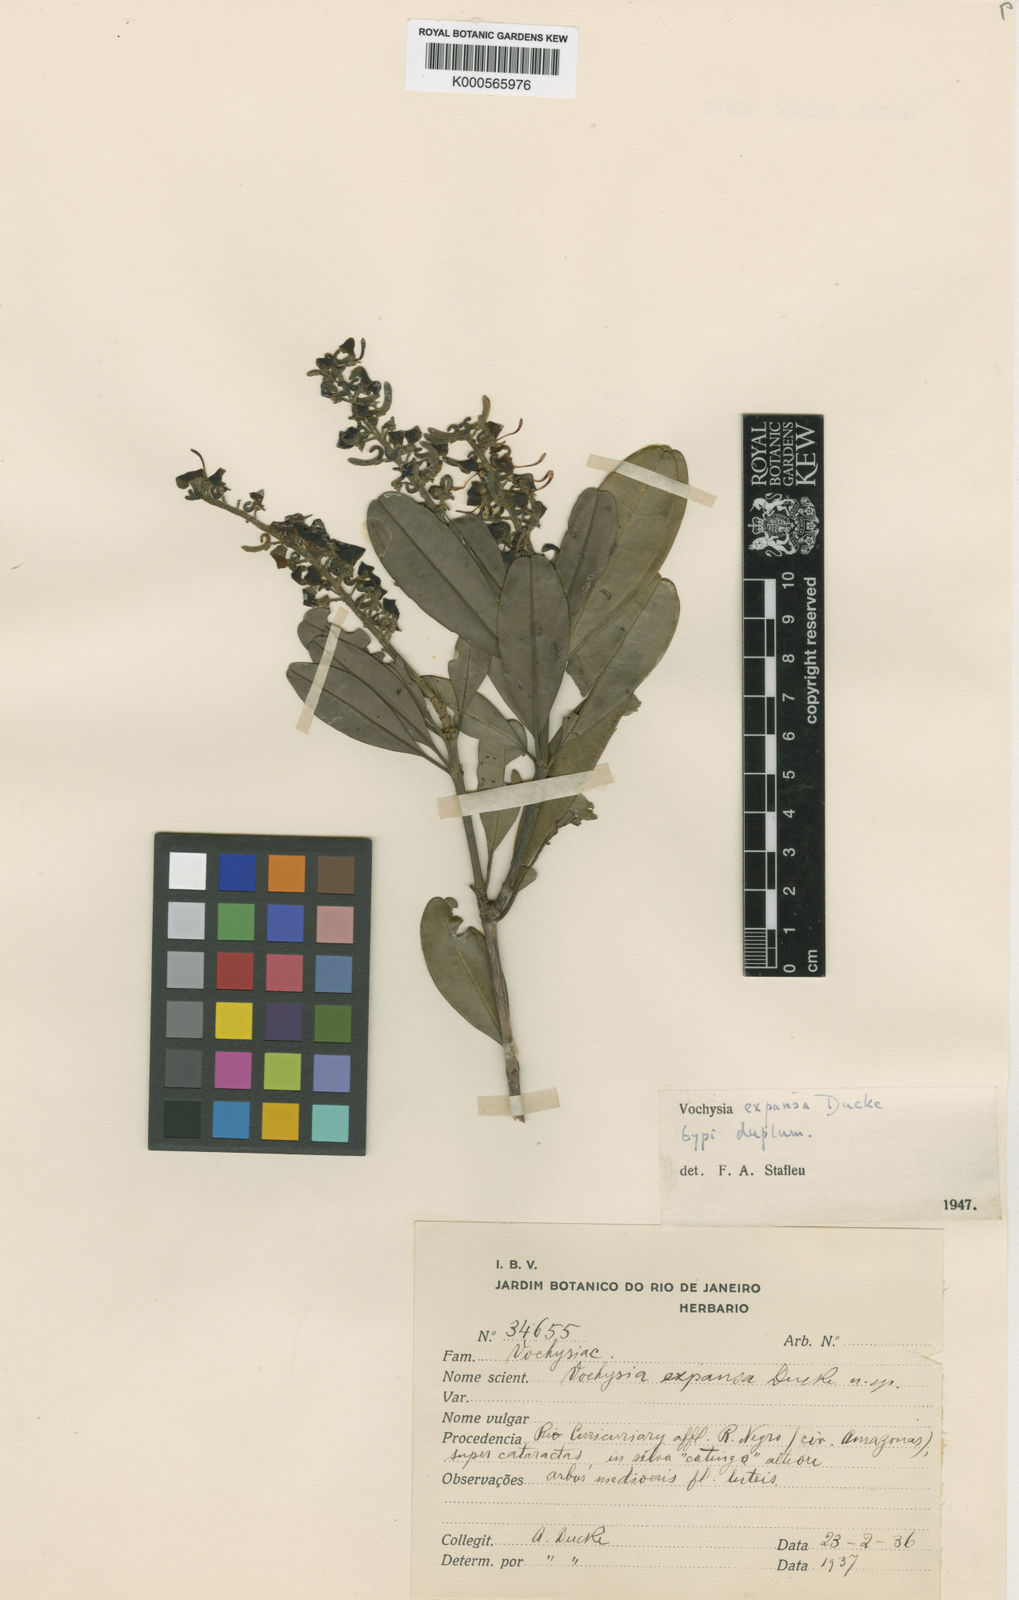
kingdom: Plantae
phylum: Tracheophyta
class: Magnoliopsida
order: Myrtales
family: Vochysiaceae
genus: Vochysia
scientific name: Vochysia expansa
